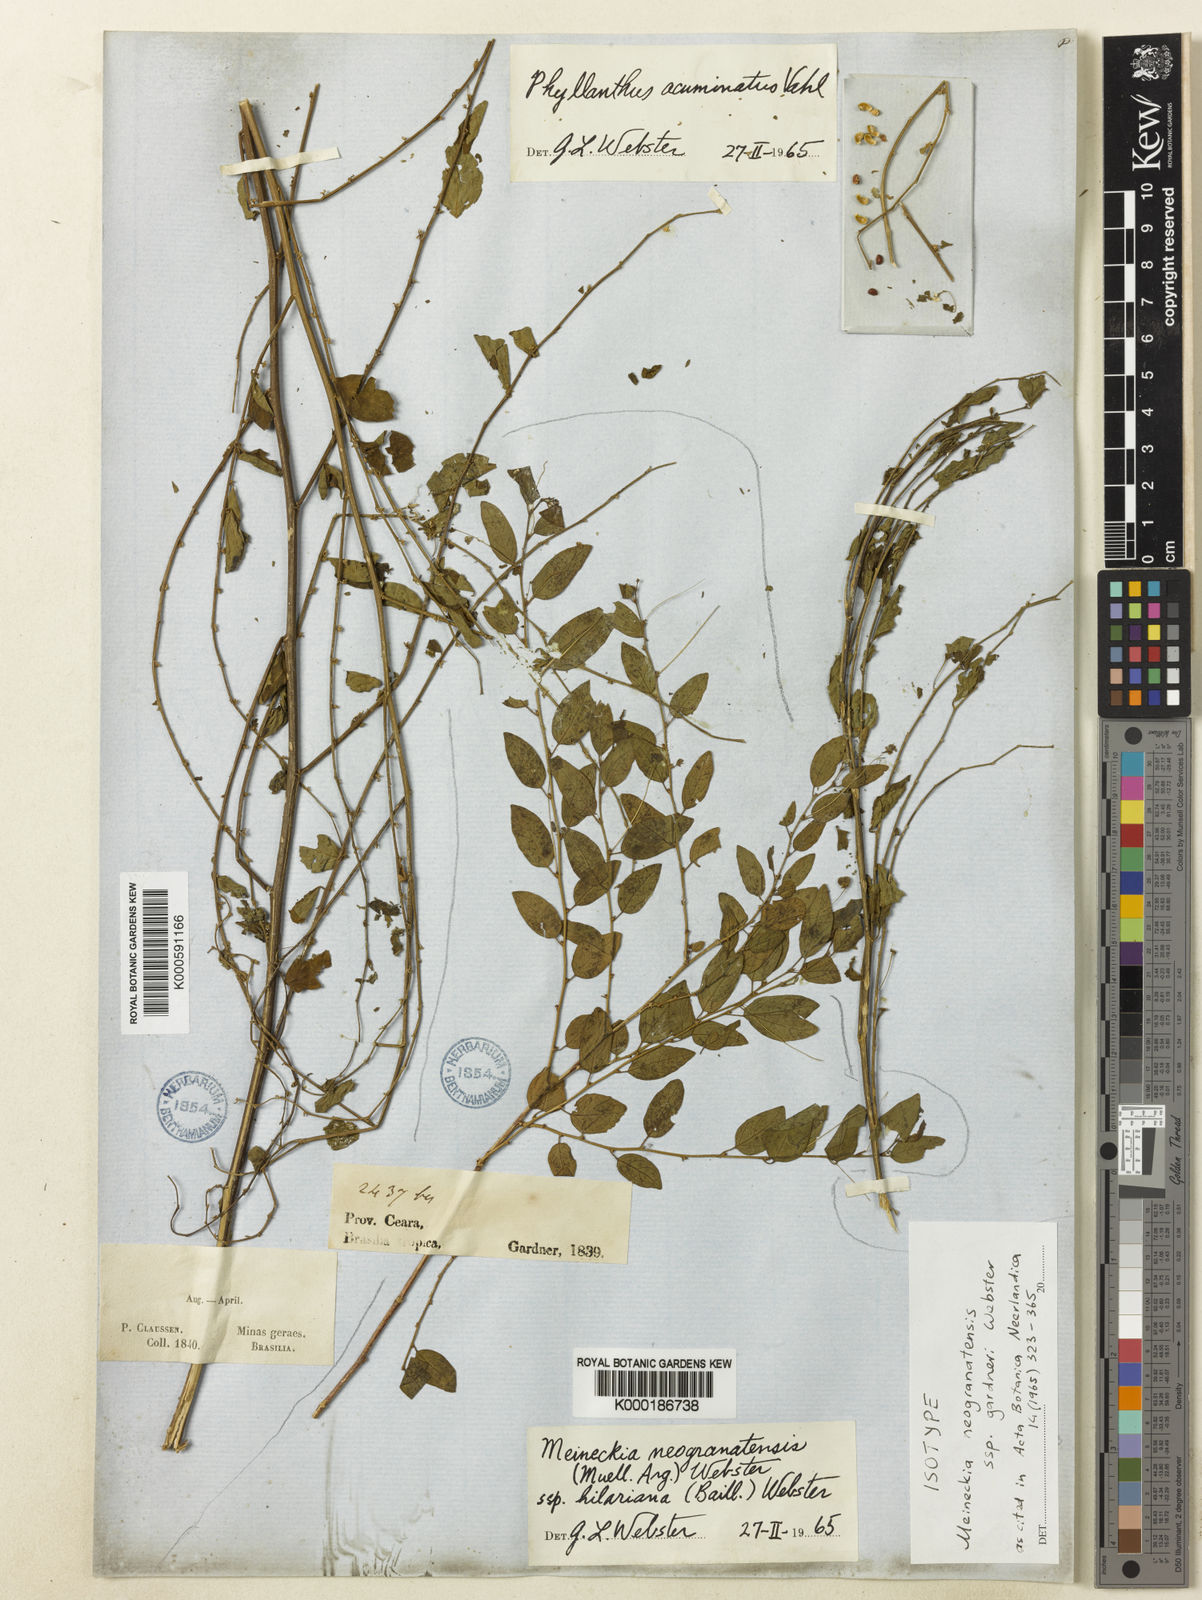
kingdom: Plantae
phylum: Tracheophyta
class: Magnoliopsida
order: Malpighiales
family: Phyllanthaceae
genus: Meineckia
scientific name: Meineckia neogranatensis
